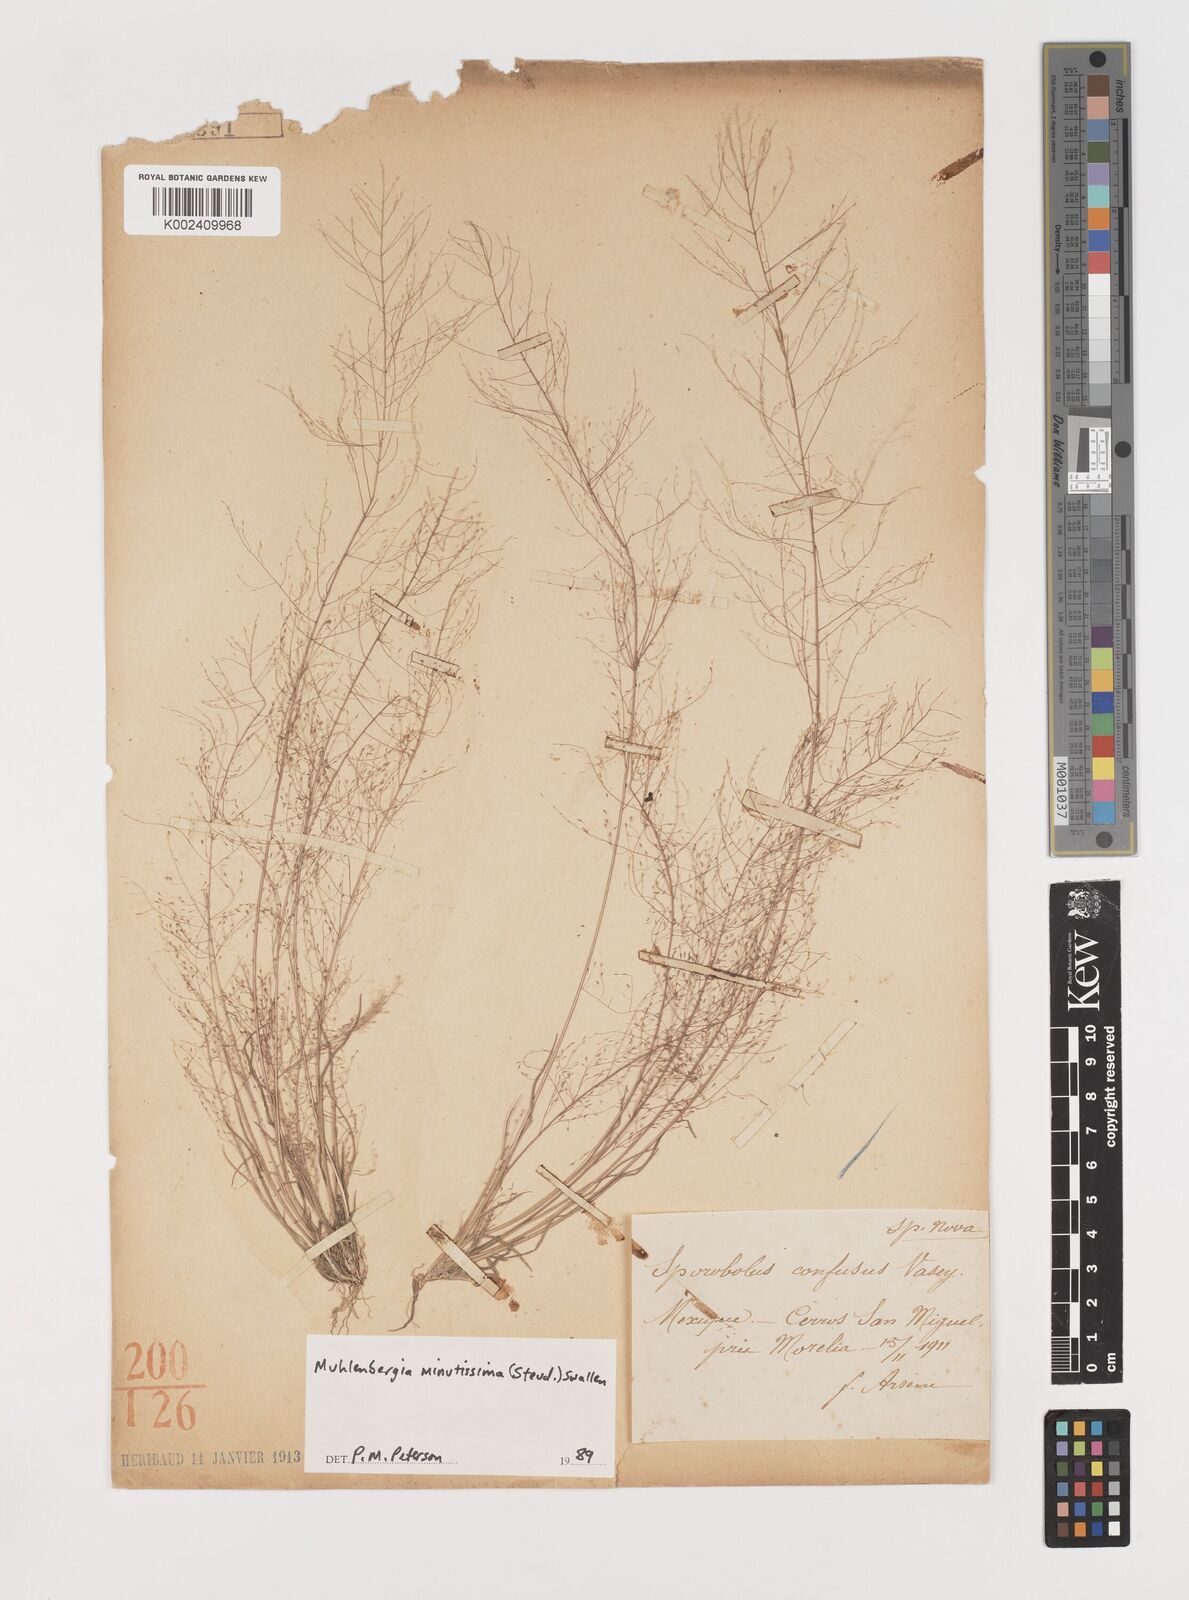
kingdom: Plantae
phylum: Tracheophyta
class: Liliopsida
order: Poales
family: Poaceae
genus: Muhlenbergia
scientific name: Muhlenbergia minutissima
